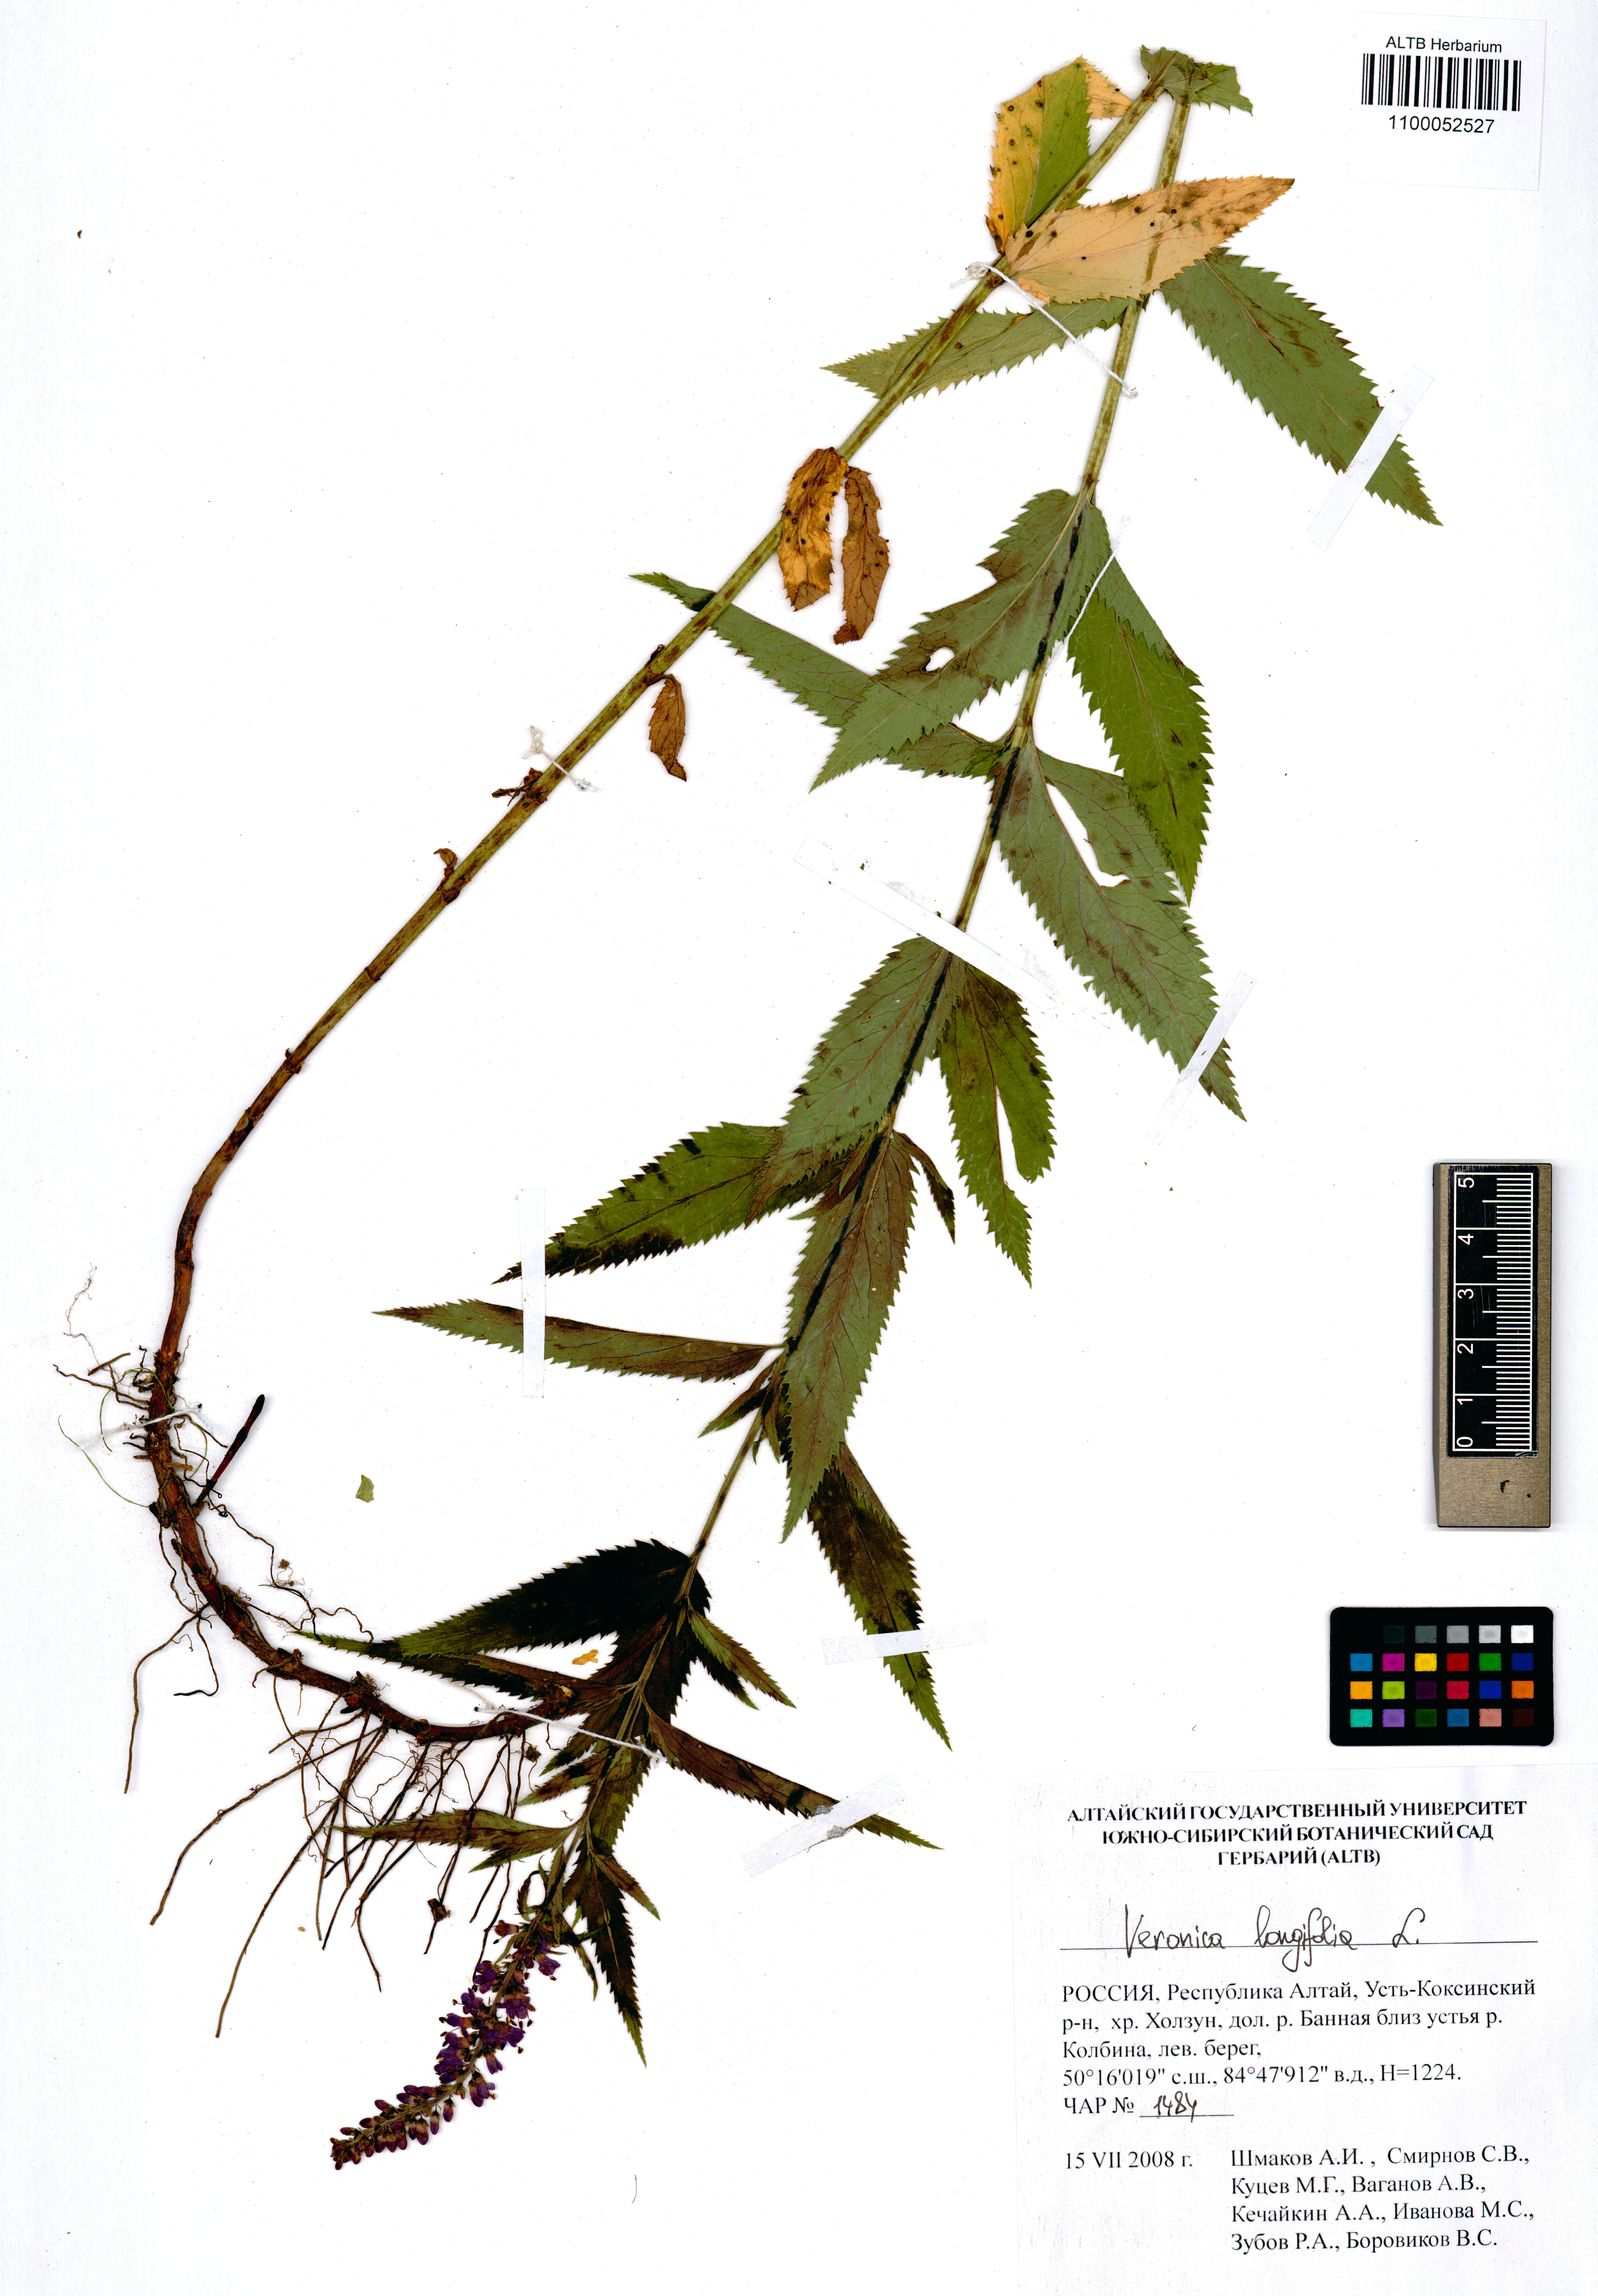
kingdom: Plantae
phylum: Tracheophyta
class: Magnoliopsida
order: Lamiales
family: Plantaginaceae
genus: Veronica
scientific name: Veronica longifolia
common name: Garden speedwell
